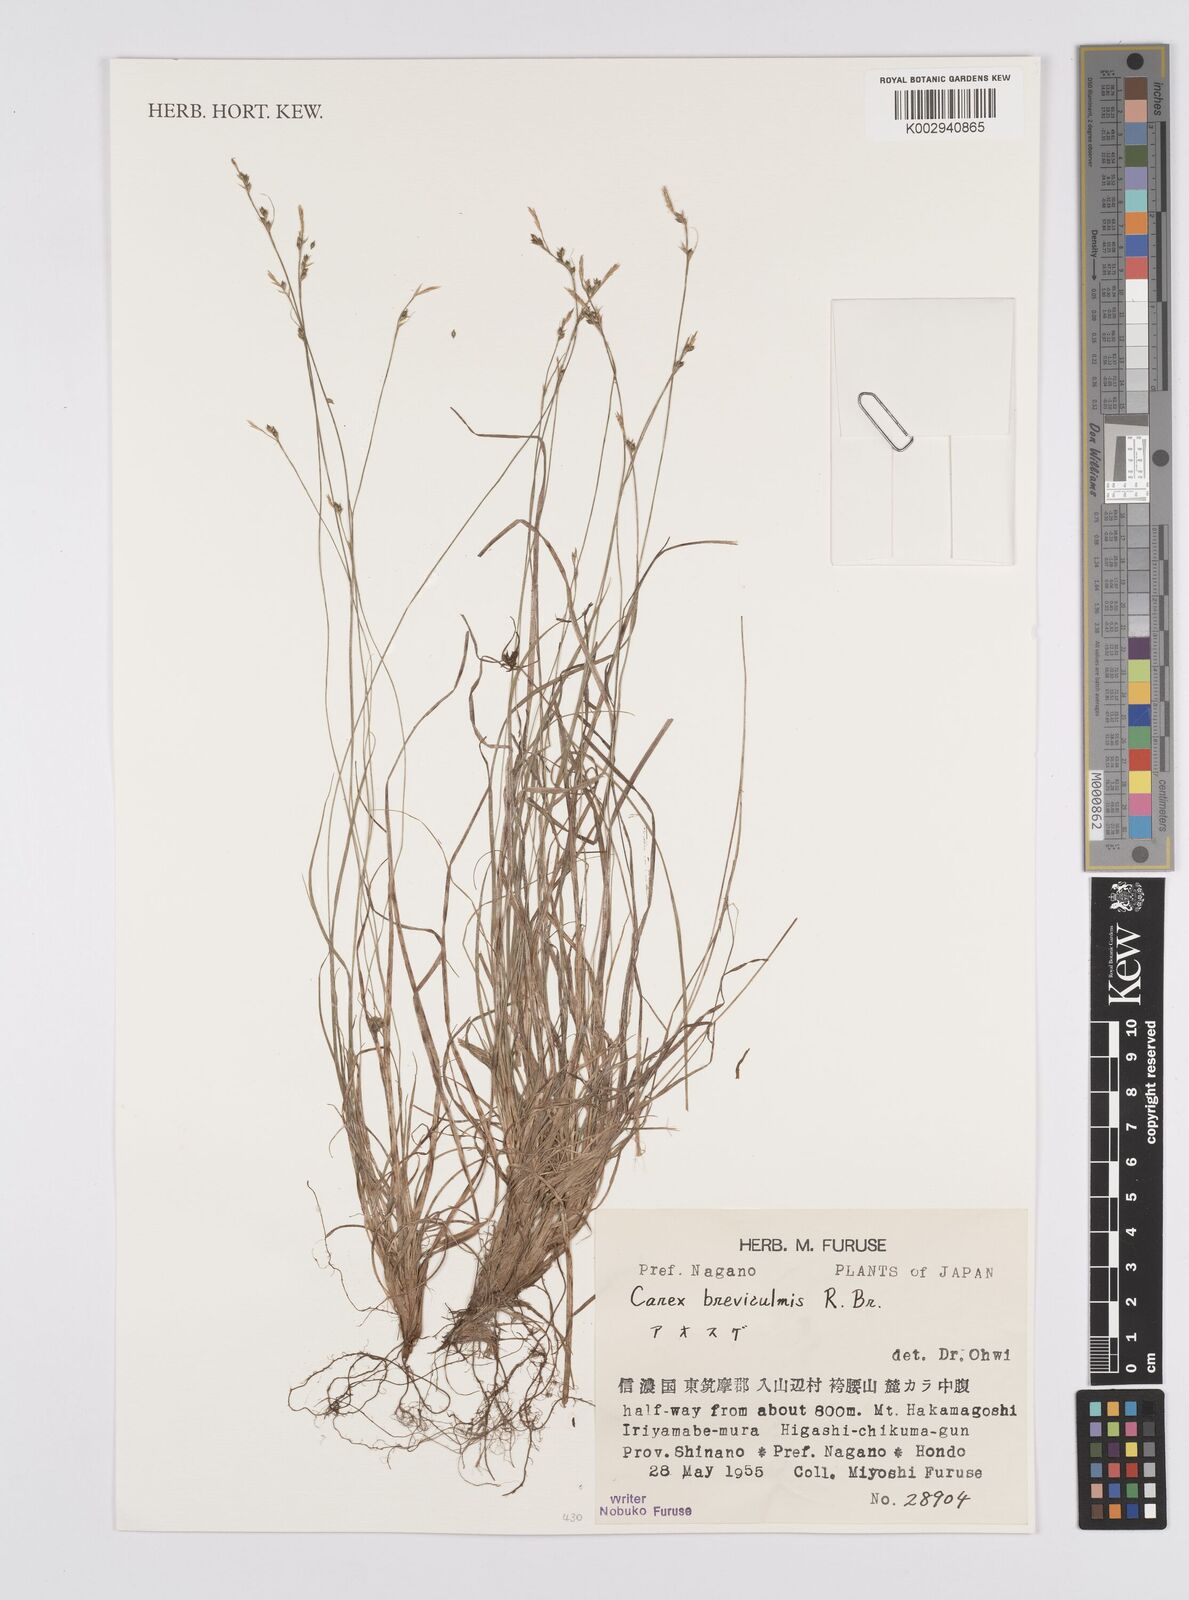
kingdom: Plantae
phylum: Tracheophyta
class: Liliopsida
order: Poales
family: Cyperaceae
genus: Carex
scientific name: Carex breviculmis
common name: Asian shortstem sedge
